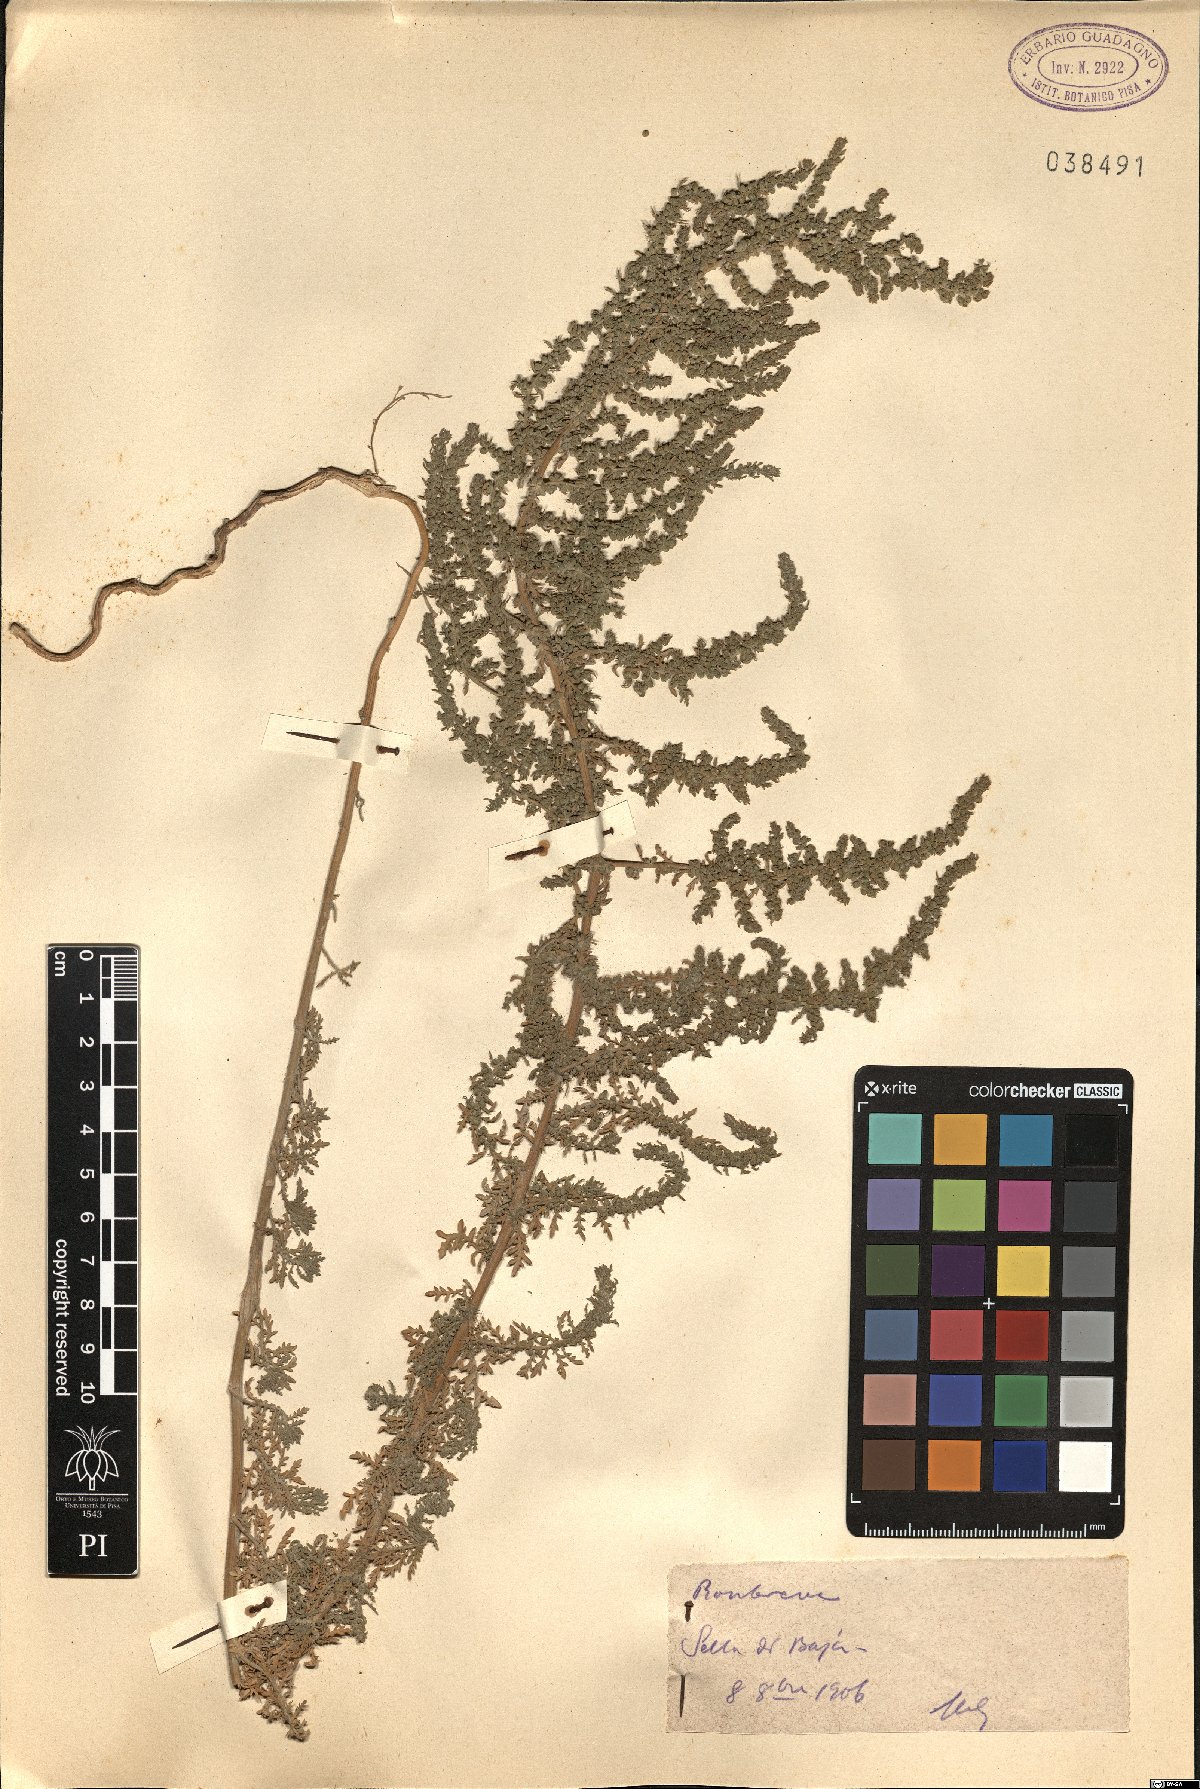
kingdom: Plantae
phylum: Tracheophyta
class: Magnoliopsida
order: Caryophyllales
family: Amaranthaceae
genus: Dysphania
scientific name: Dysphania
